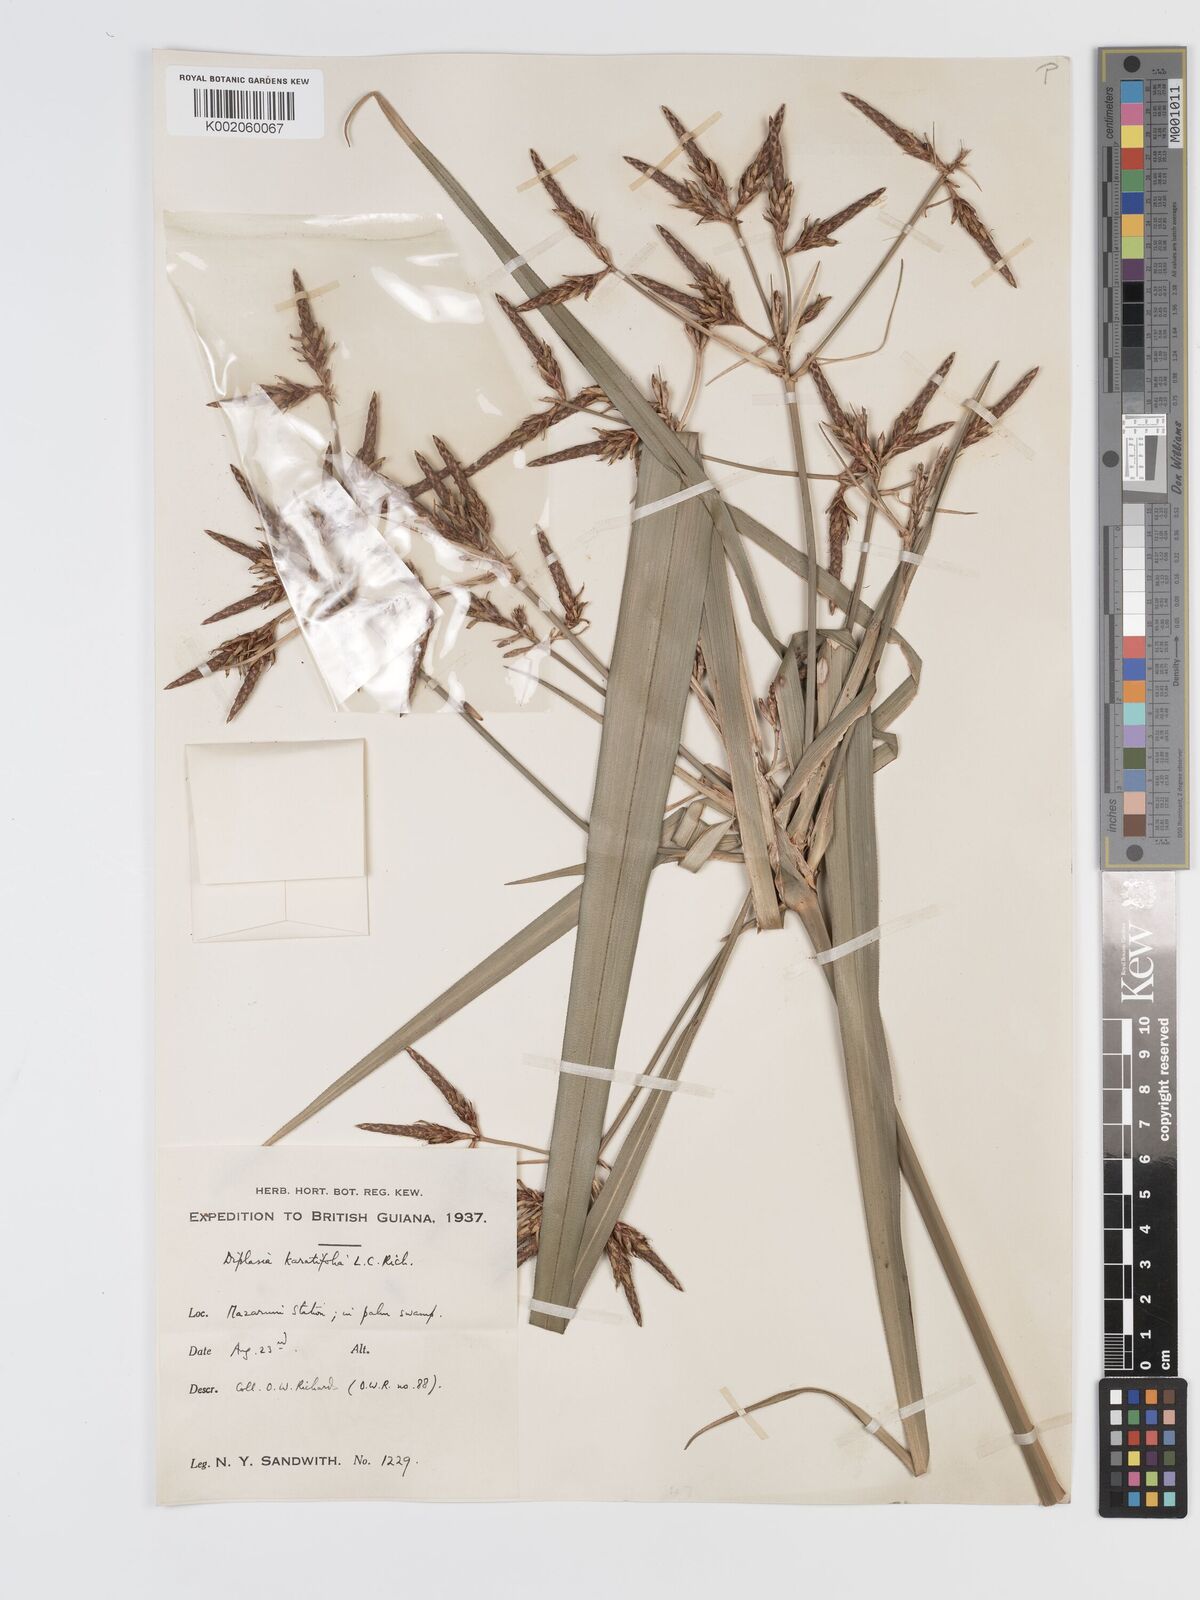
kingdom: Plantae
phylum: Tracheophyta
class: Liliopsida
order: Poales
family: Cyperaceae
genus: Diplasia
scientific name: Diplasia karatifolia
